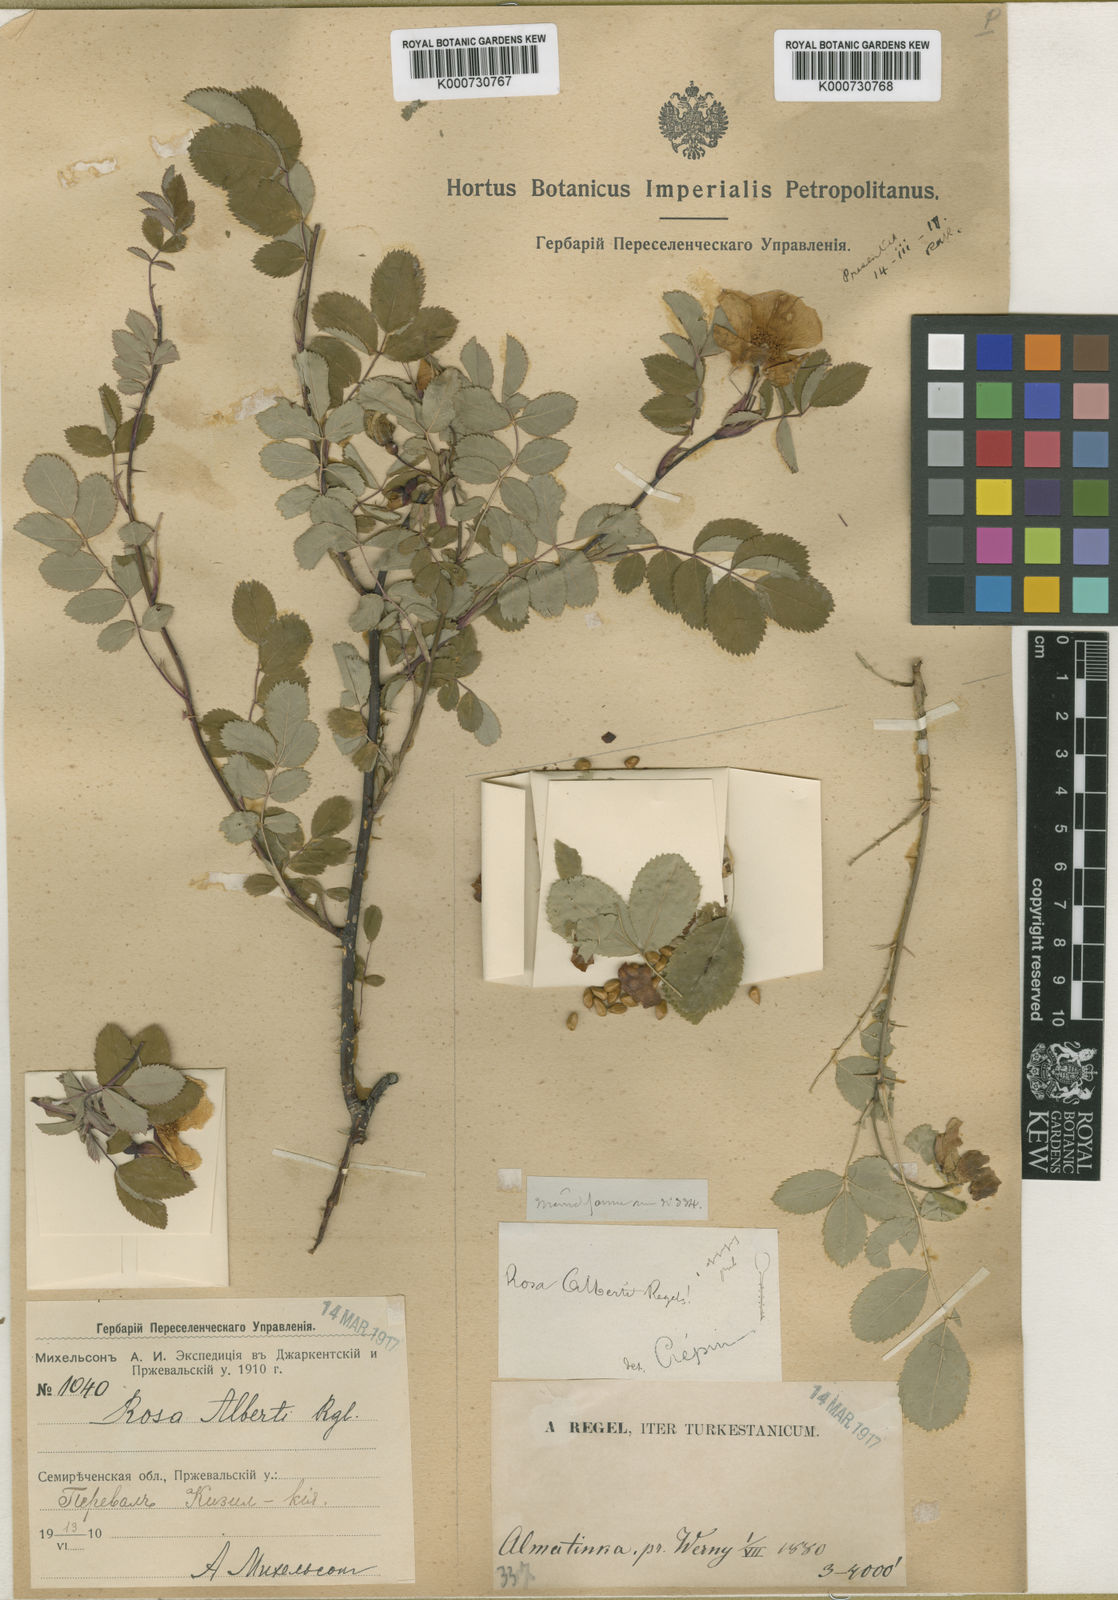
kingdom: Plantae
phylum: Tracheophyta
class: Magnoliopsida
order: Rosales
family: Rosaceae
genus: Rosa
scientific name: Rosa alberti
